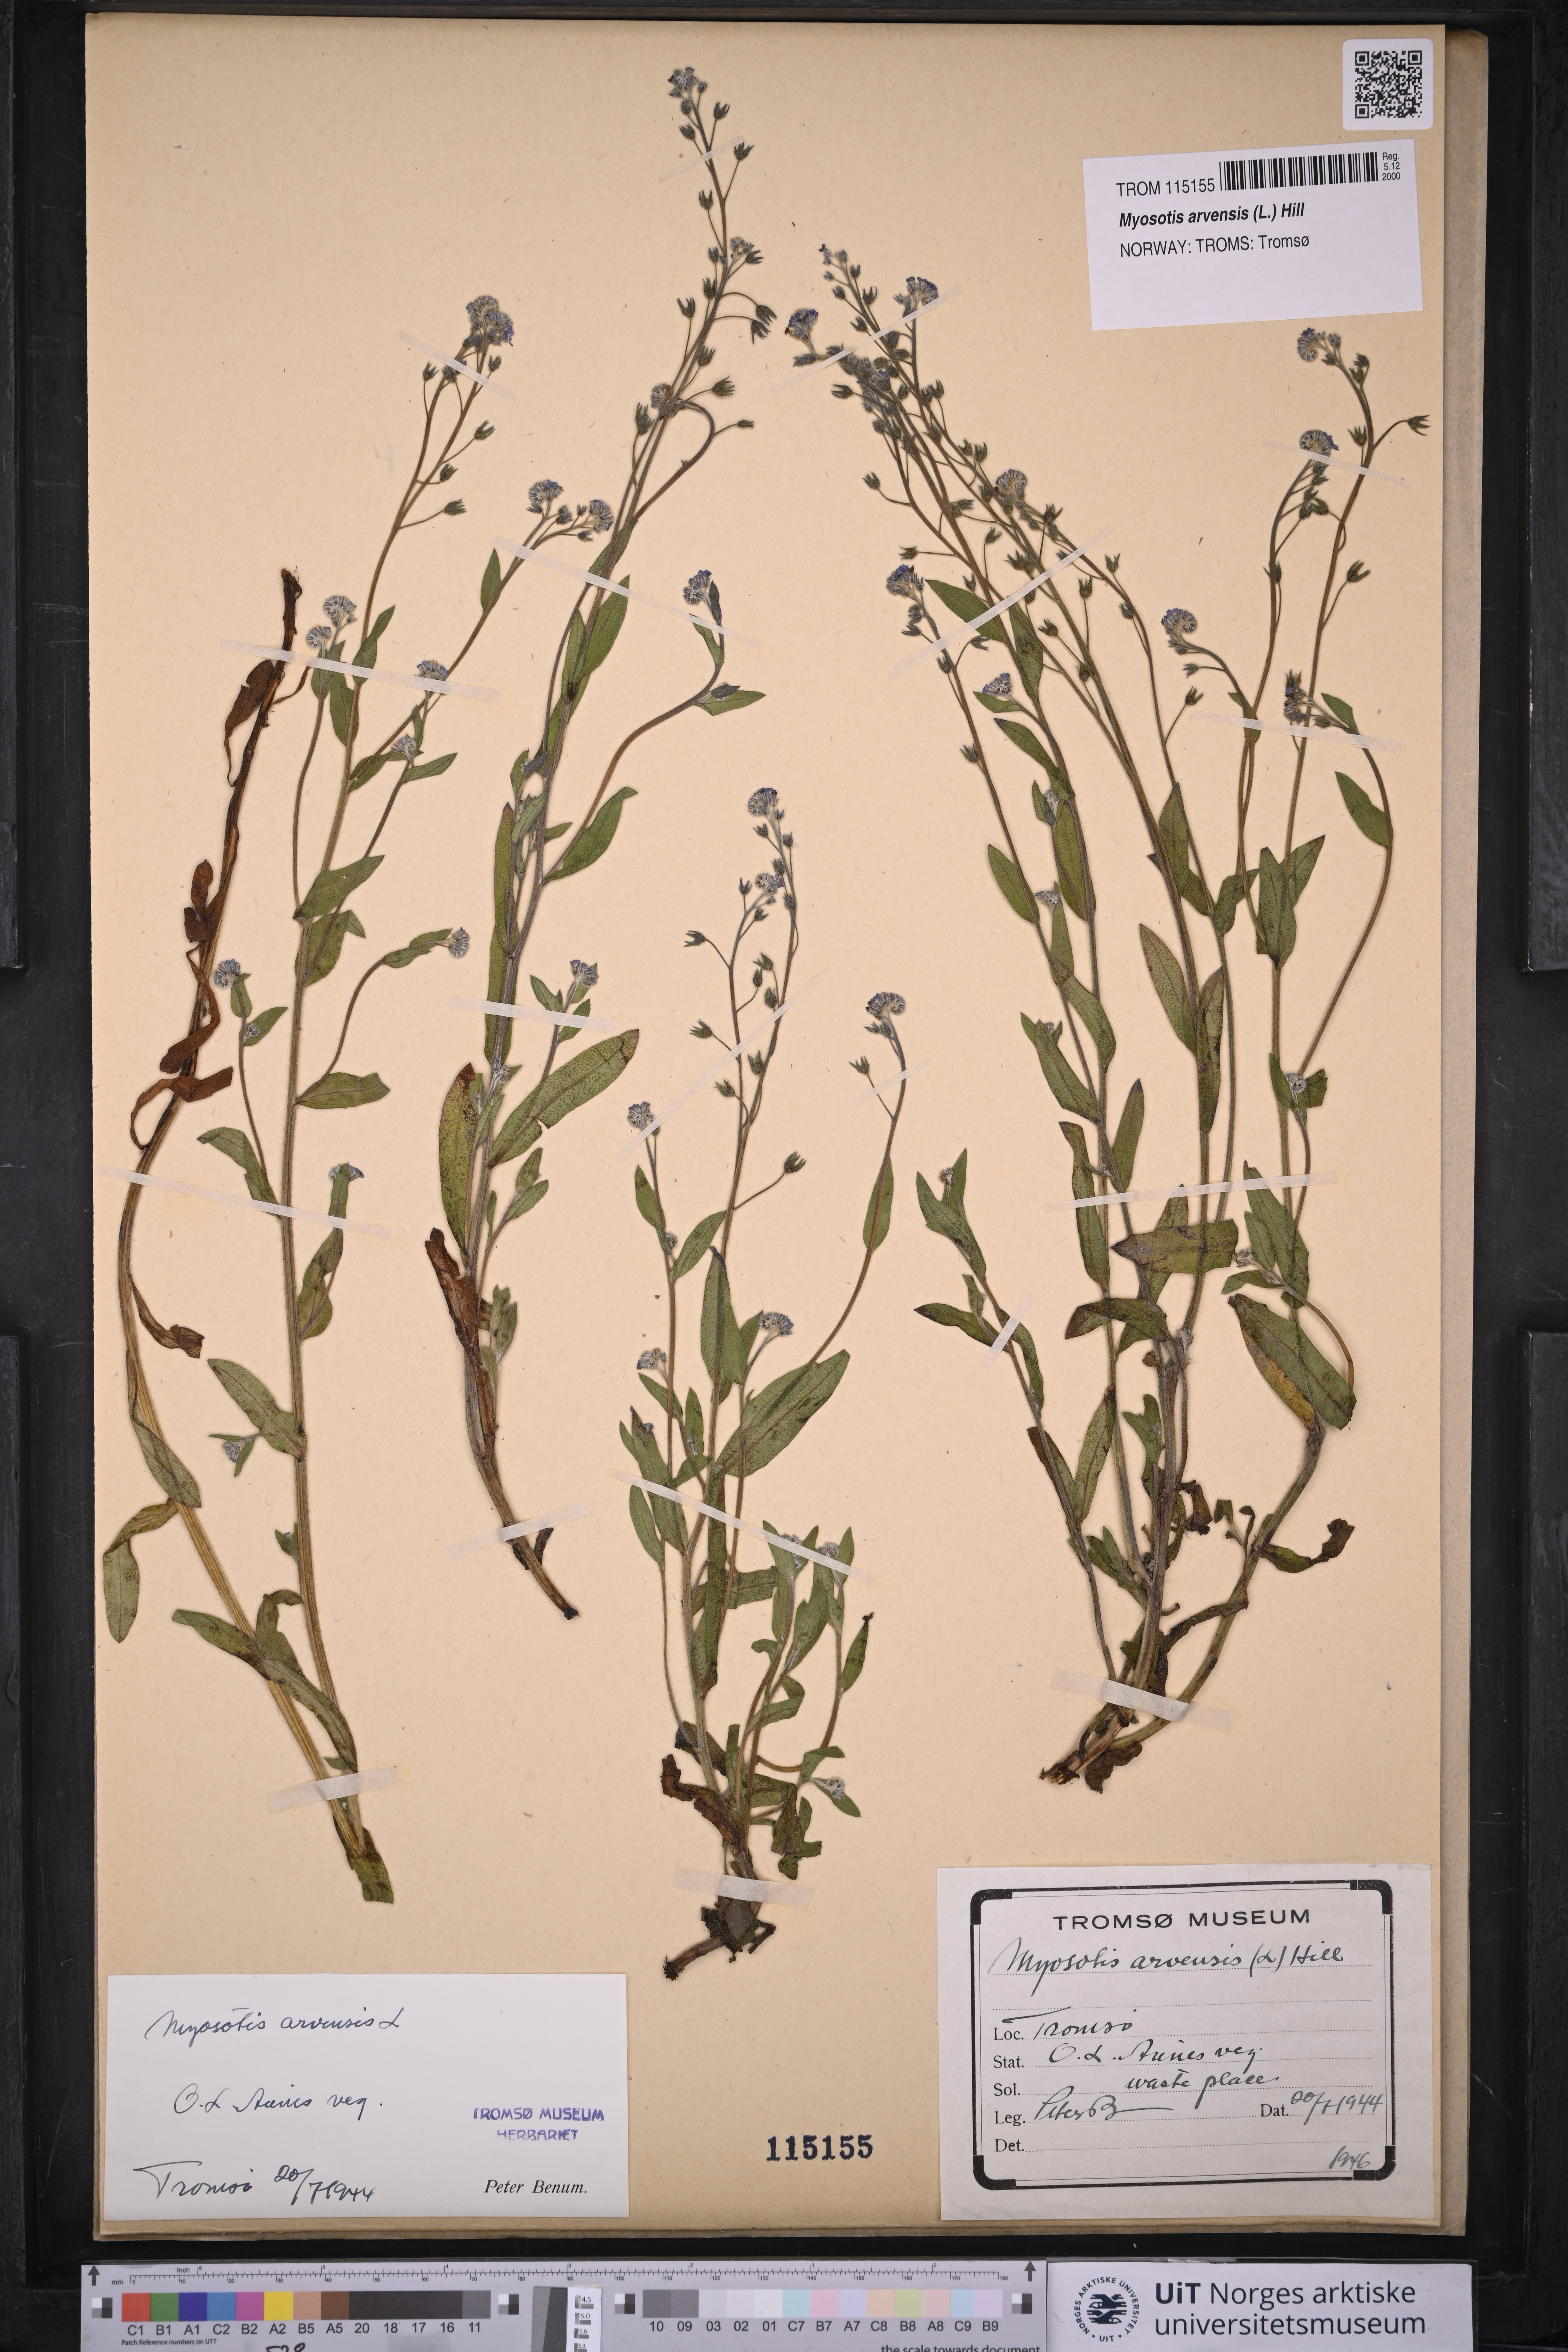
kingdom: Plantae
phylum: Tracheophyta
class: Magnoliopsida
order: Boraginales
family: Boraginaceae
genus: Myosotis
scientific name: Myosotis arvensis
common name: Field forget-me-not
